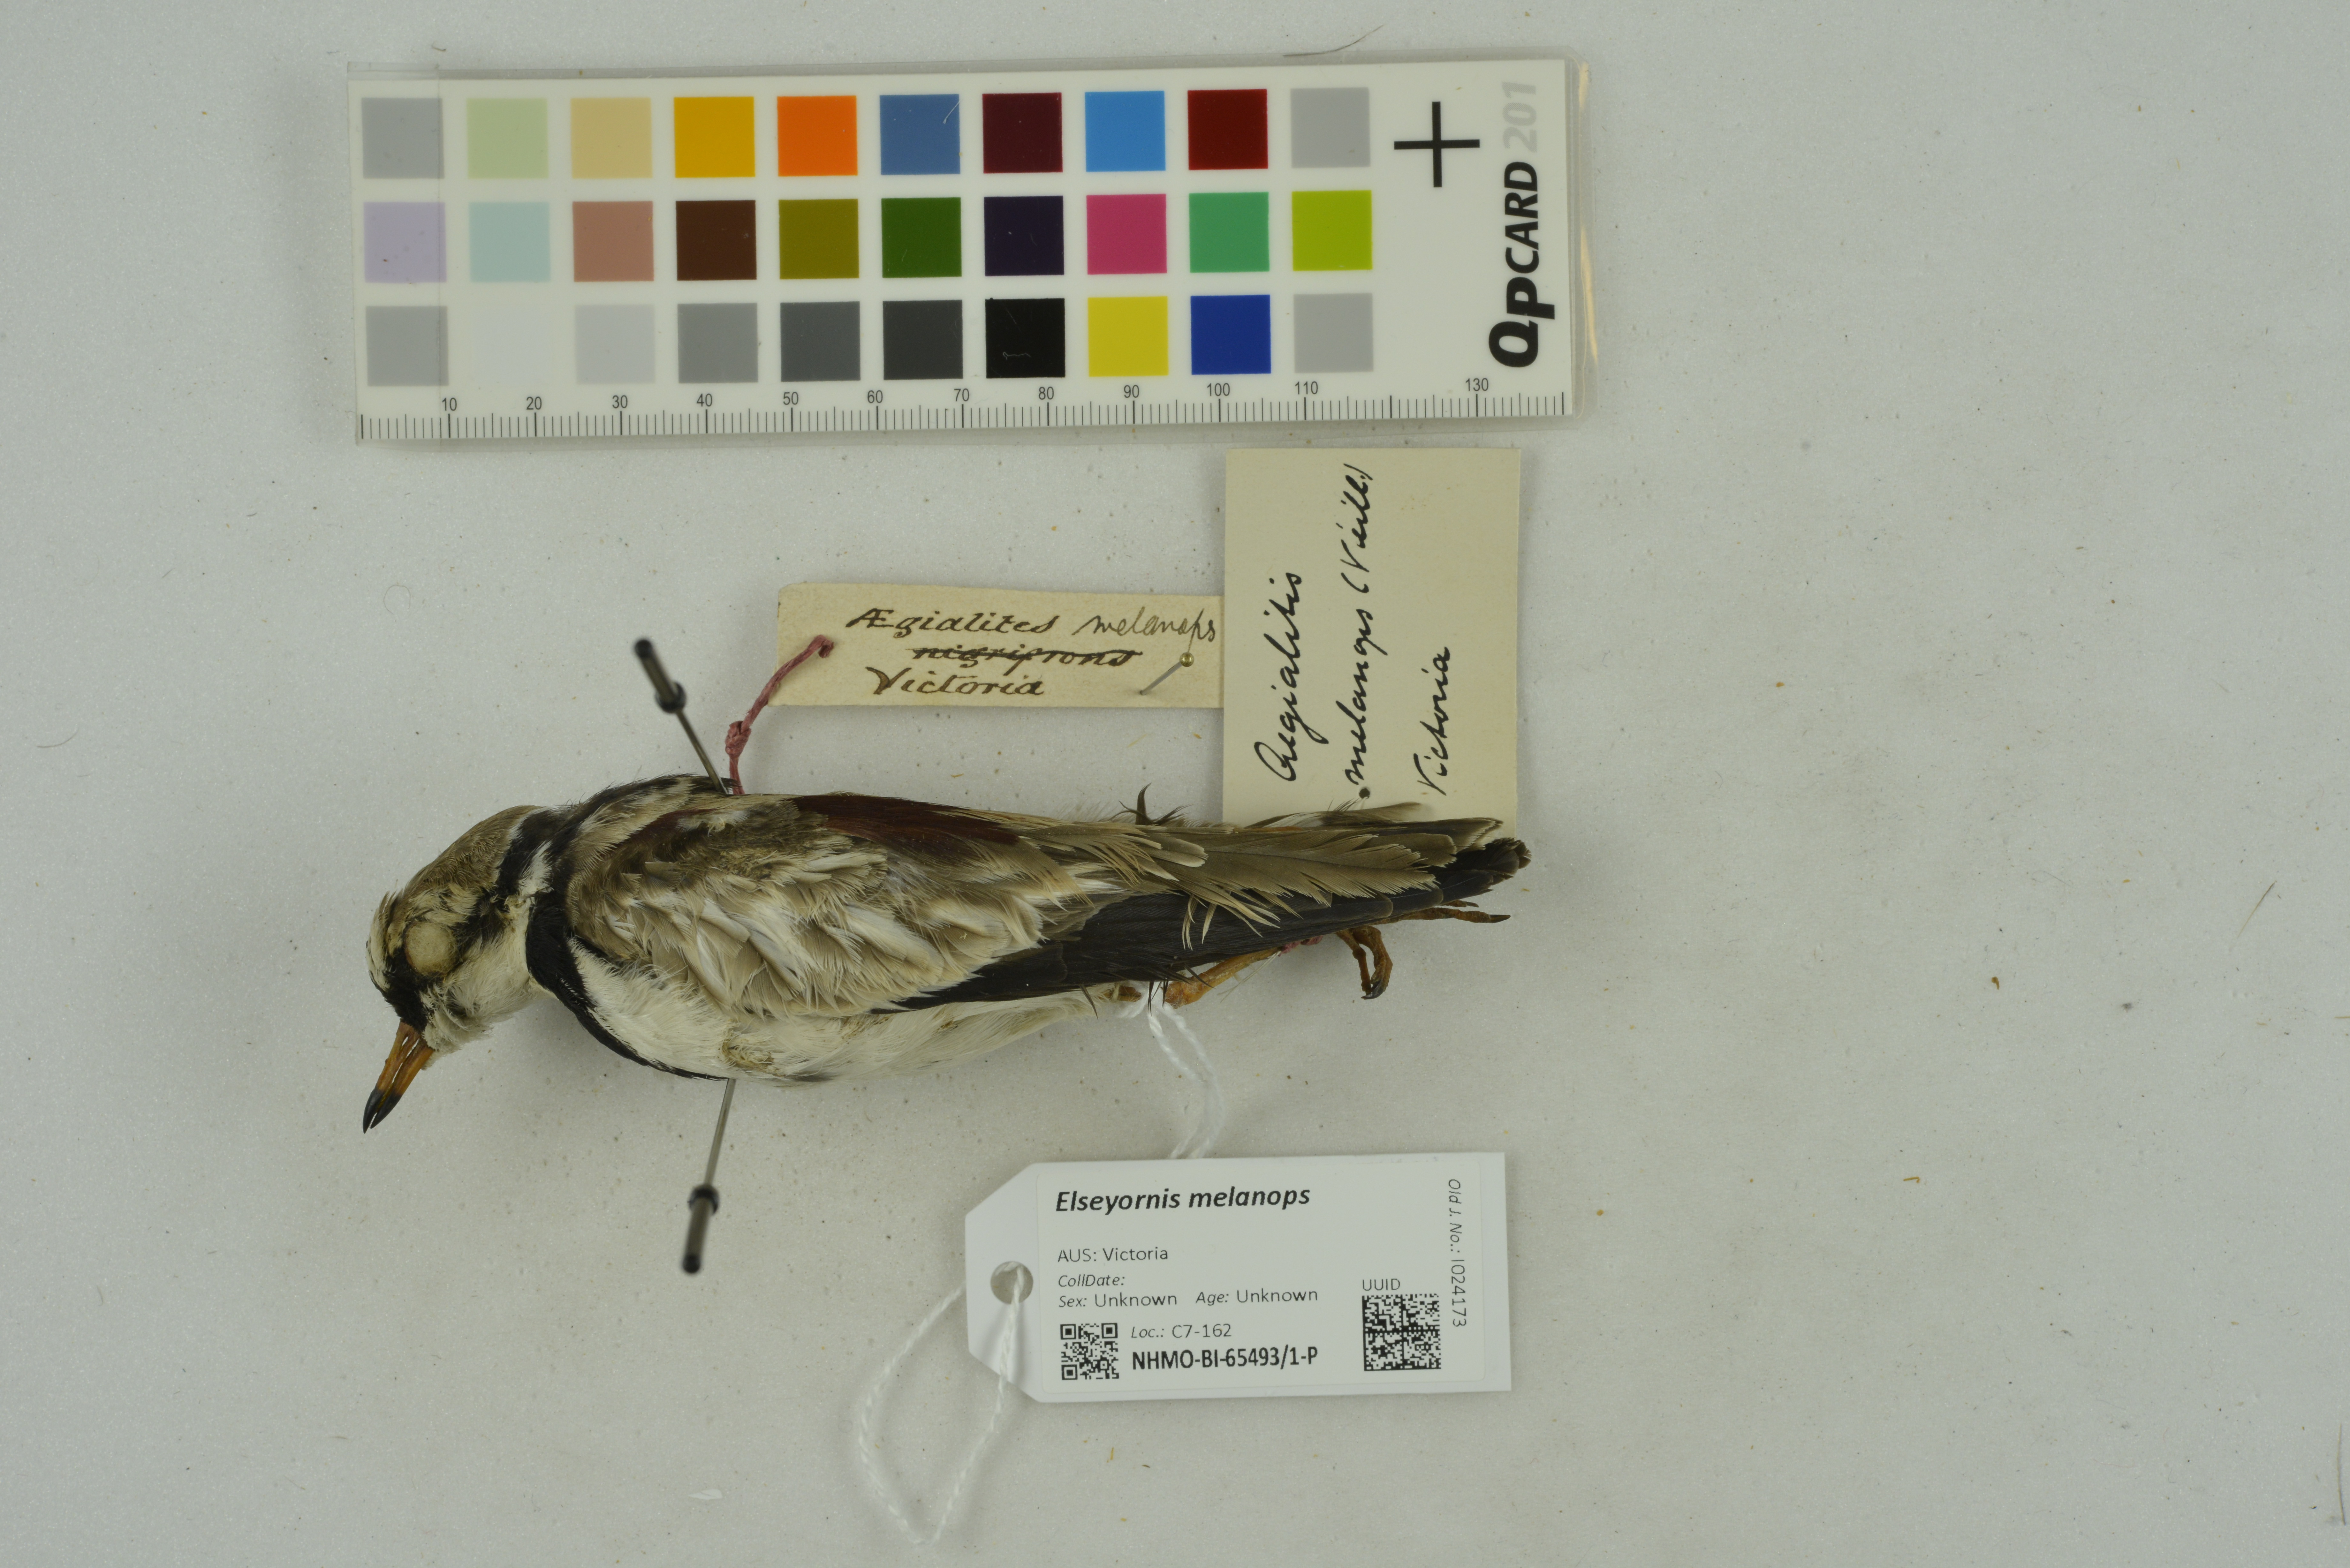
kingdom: Animalia
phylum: Chordata
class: Aves
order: Charadriiformes
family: Charadriidae
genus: Elseyornis
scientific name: Elseyornis melanops
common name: Black-fronted dotterel
